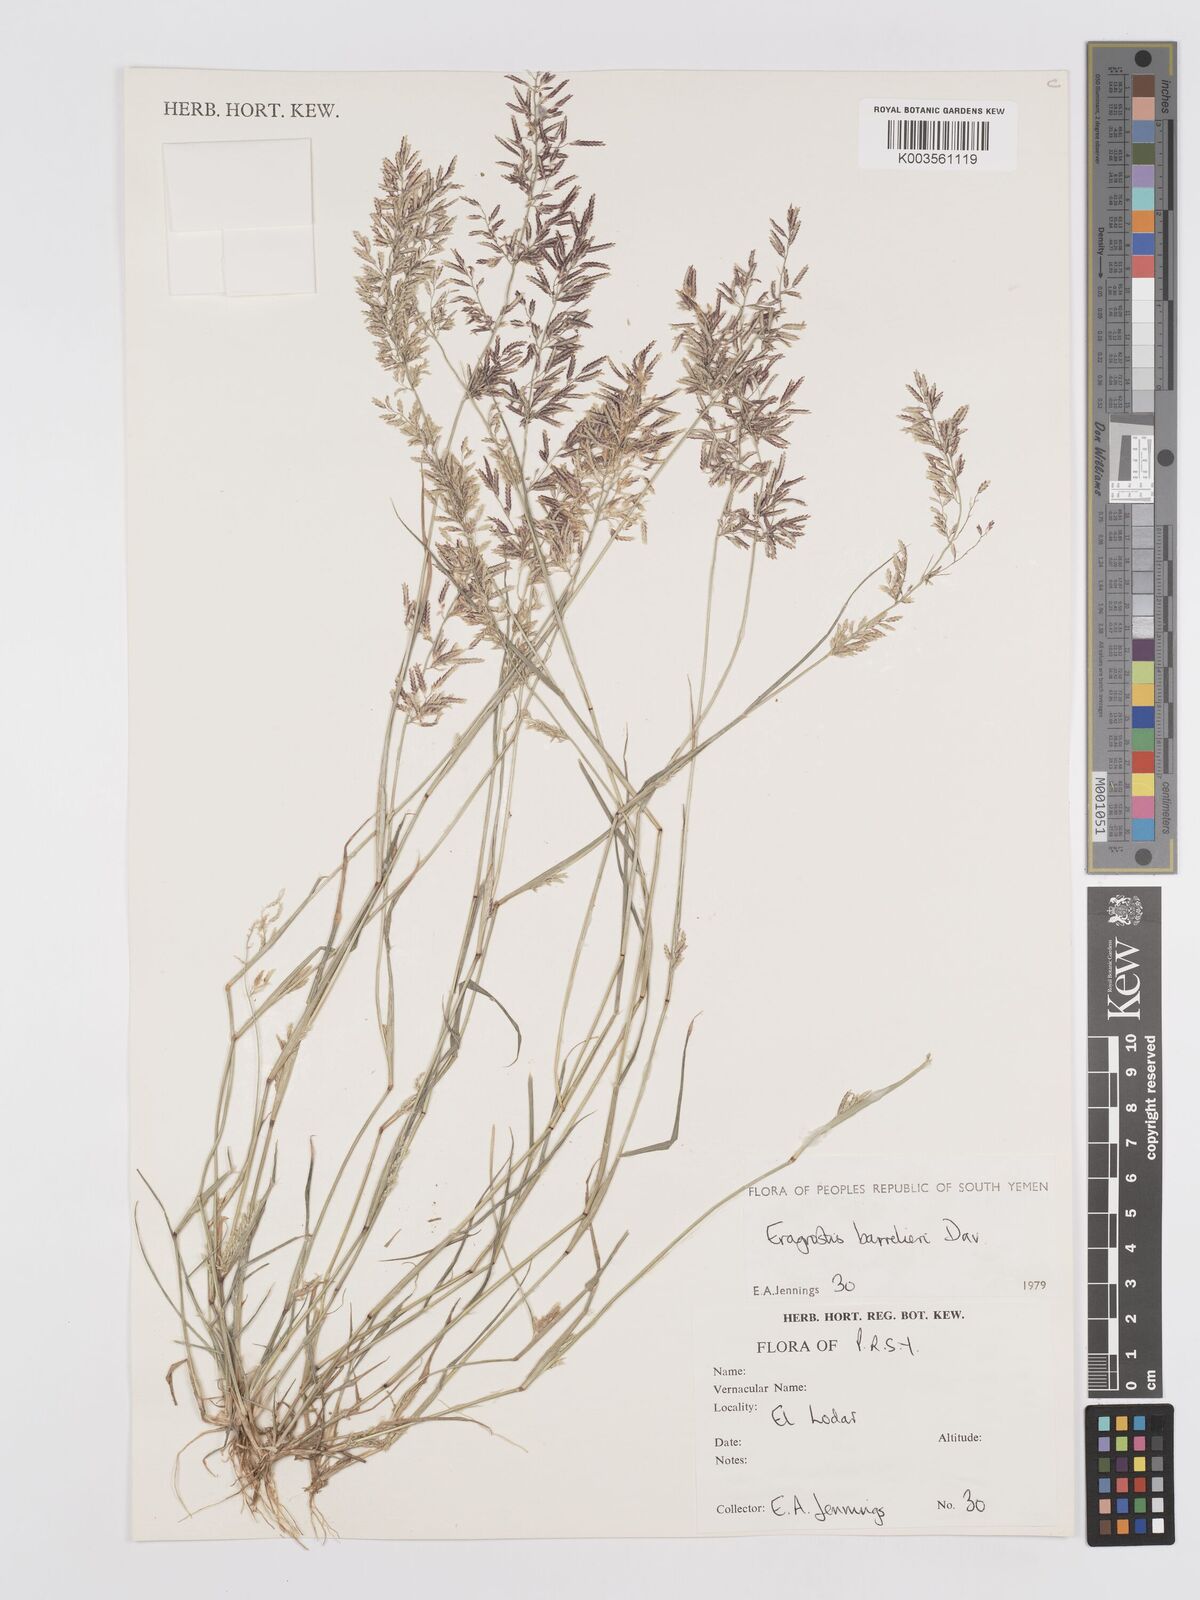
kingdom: Plantae
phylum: Tracheophyta
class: Liliopsida
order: Poales
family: Poaceae
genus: Eragrostis
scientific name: Eragrostis barrelieri
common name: Mediterranean lovegrass
